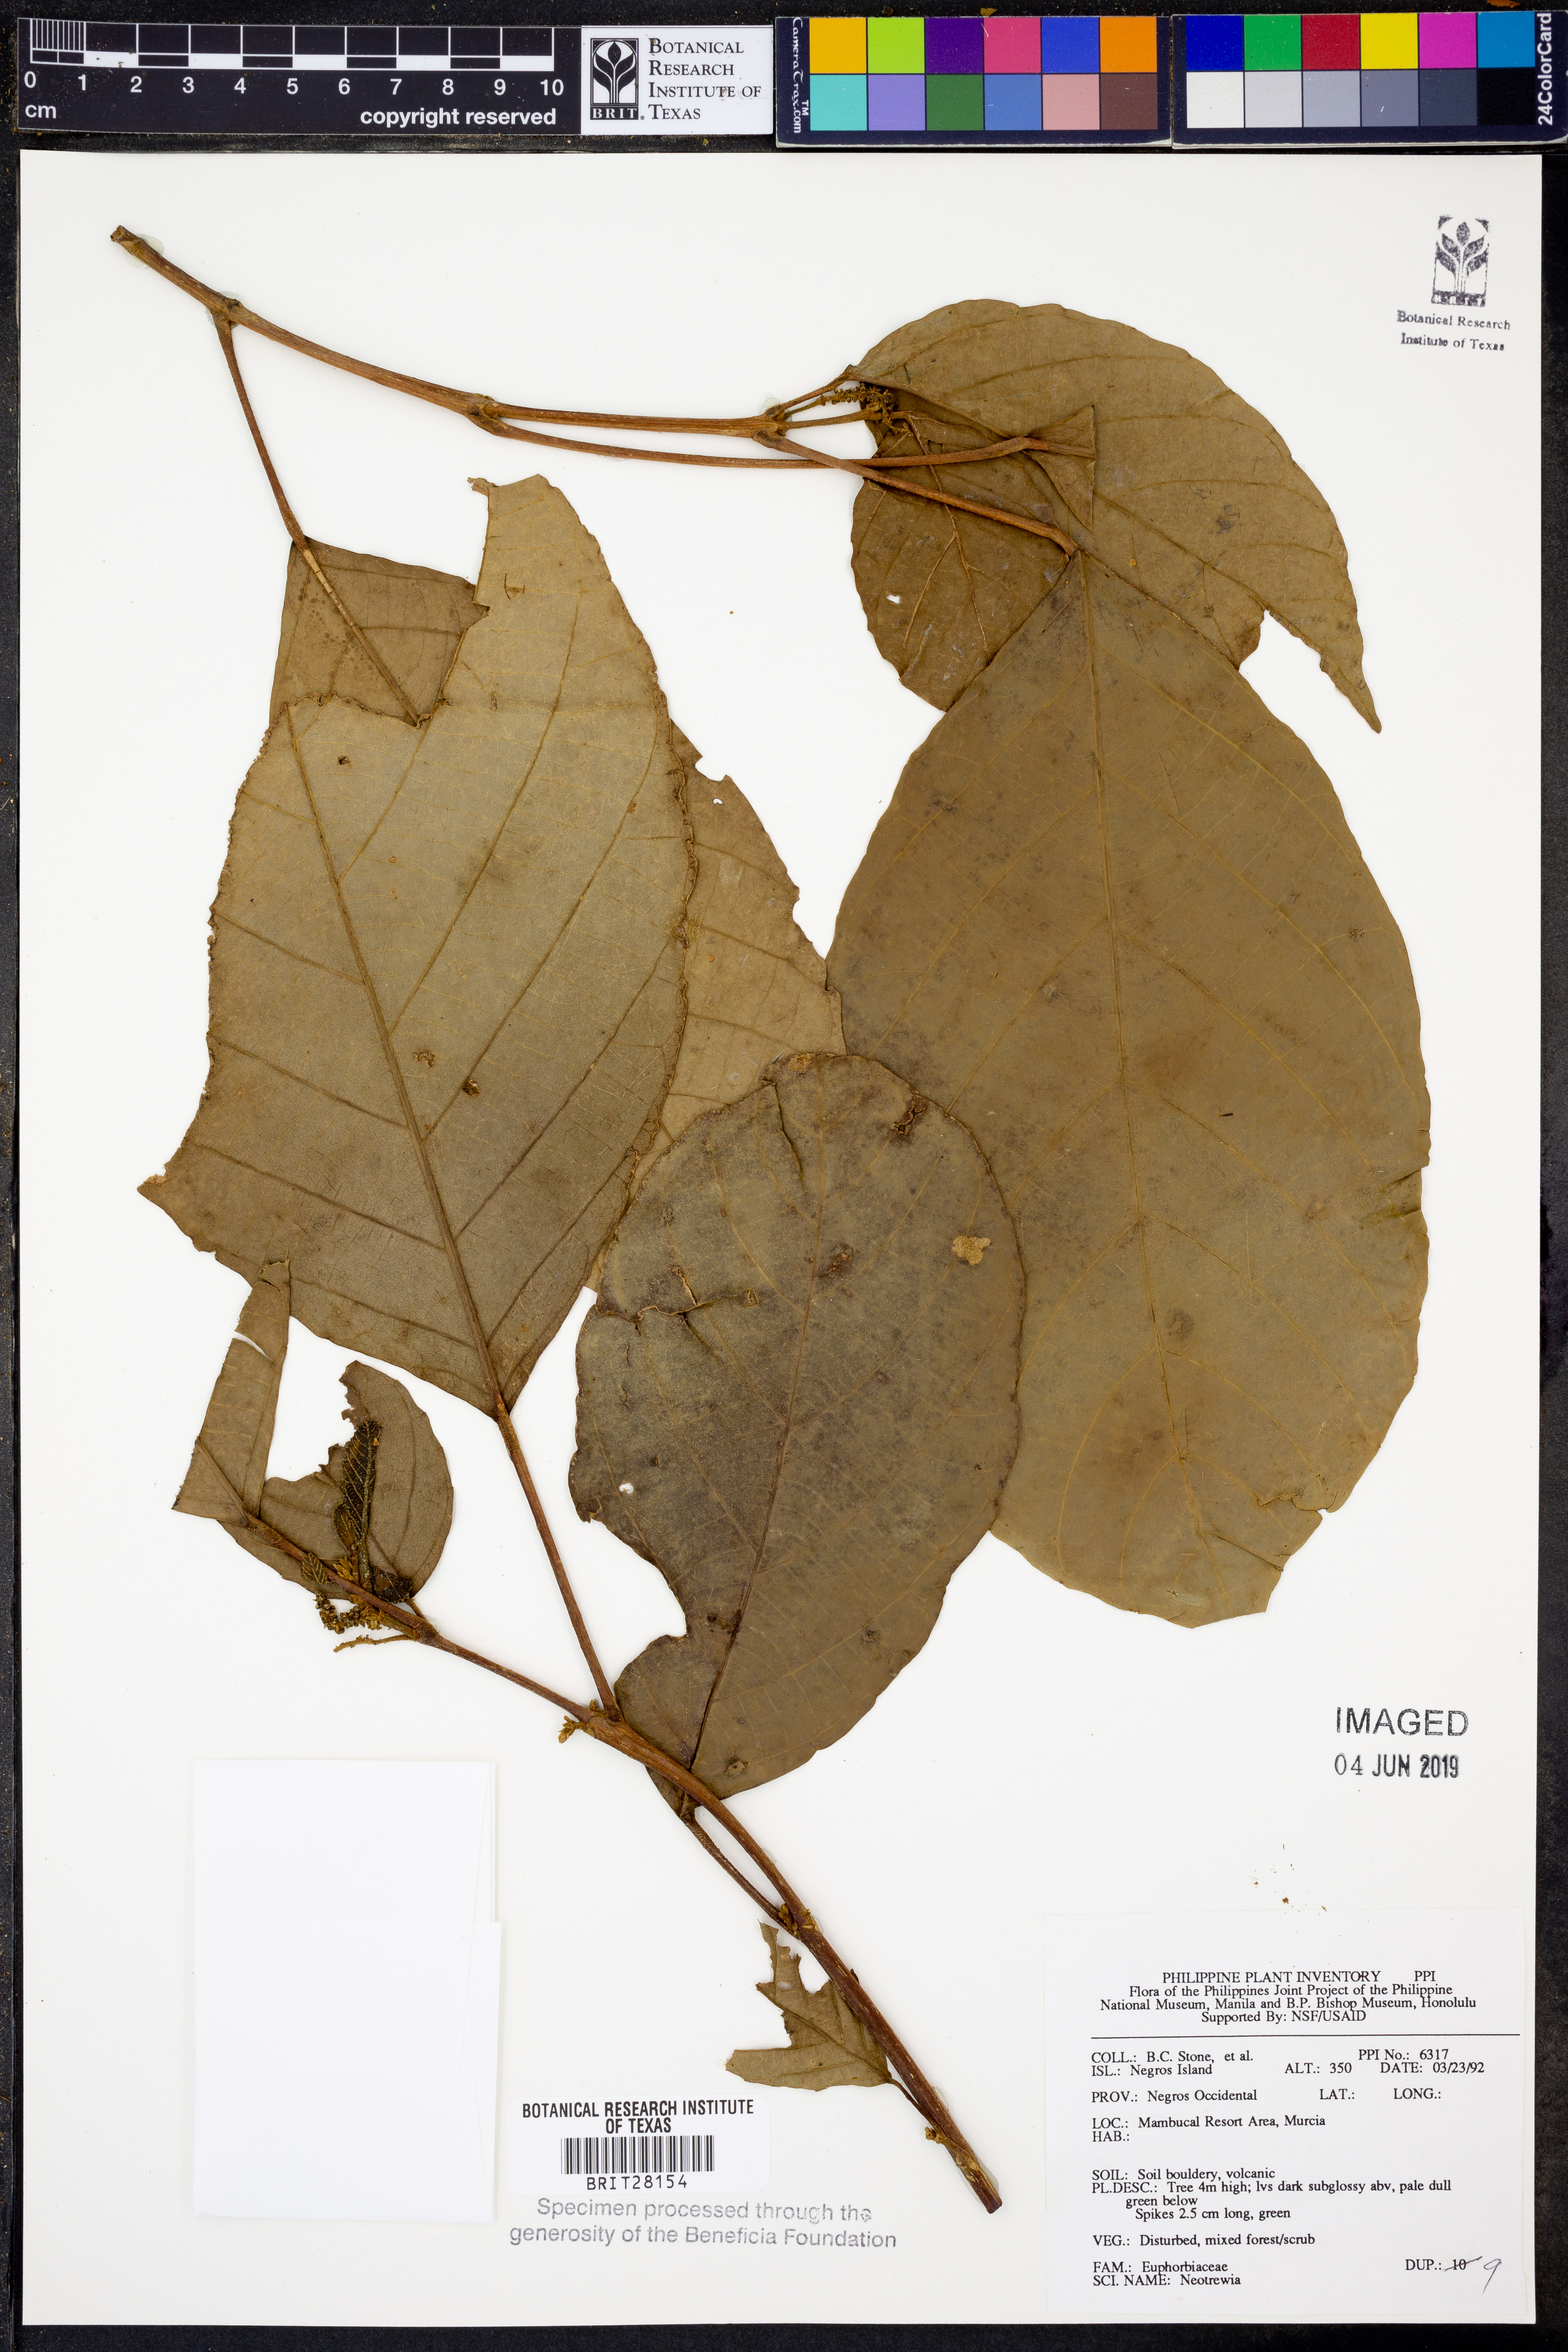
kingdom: Plantae
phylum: Tracheophyta
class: Magnoliopsida
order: Malpighiales
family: Euphorbiaceae
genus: Mallotus
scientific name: Mallotus
